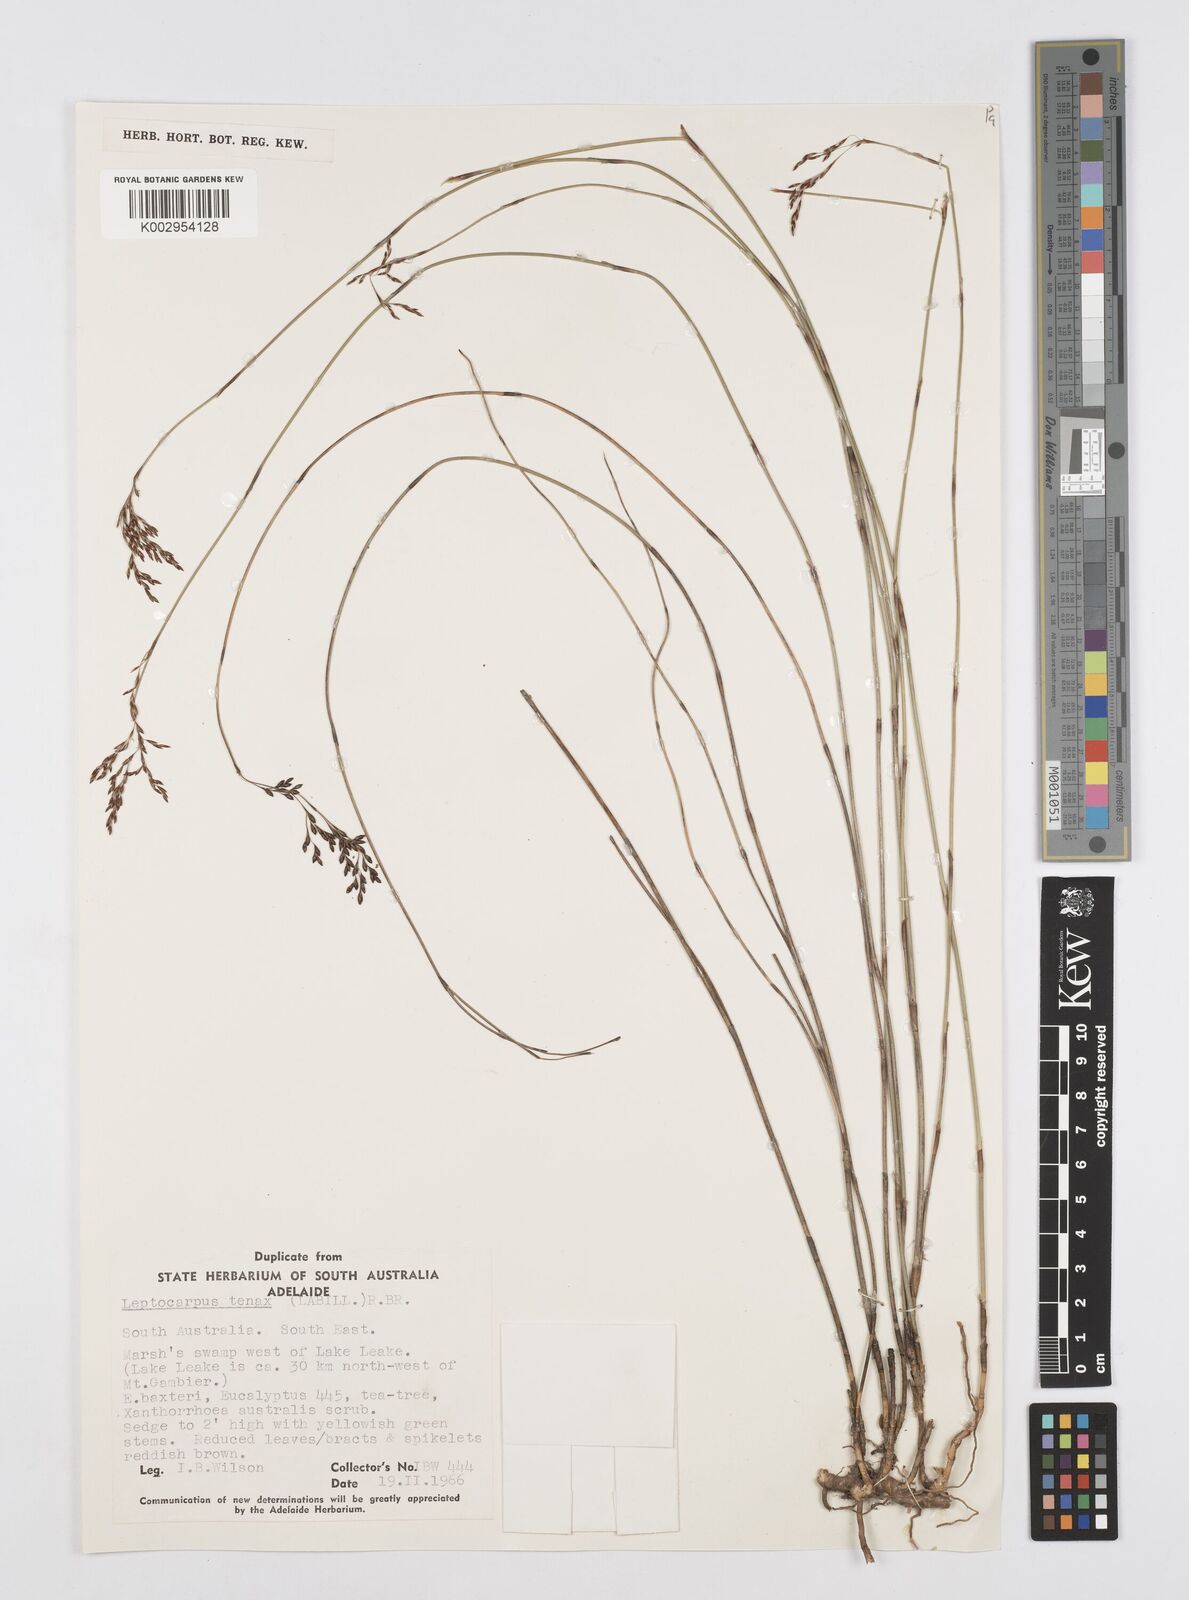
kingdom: Plantae
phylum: Tracheophyta
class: Liliopsida
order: Poales
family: Restionaceae
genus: Leptocarpus
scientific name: Leptocarpus tenax
